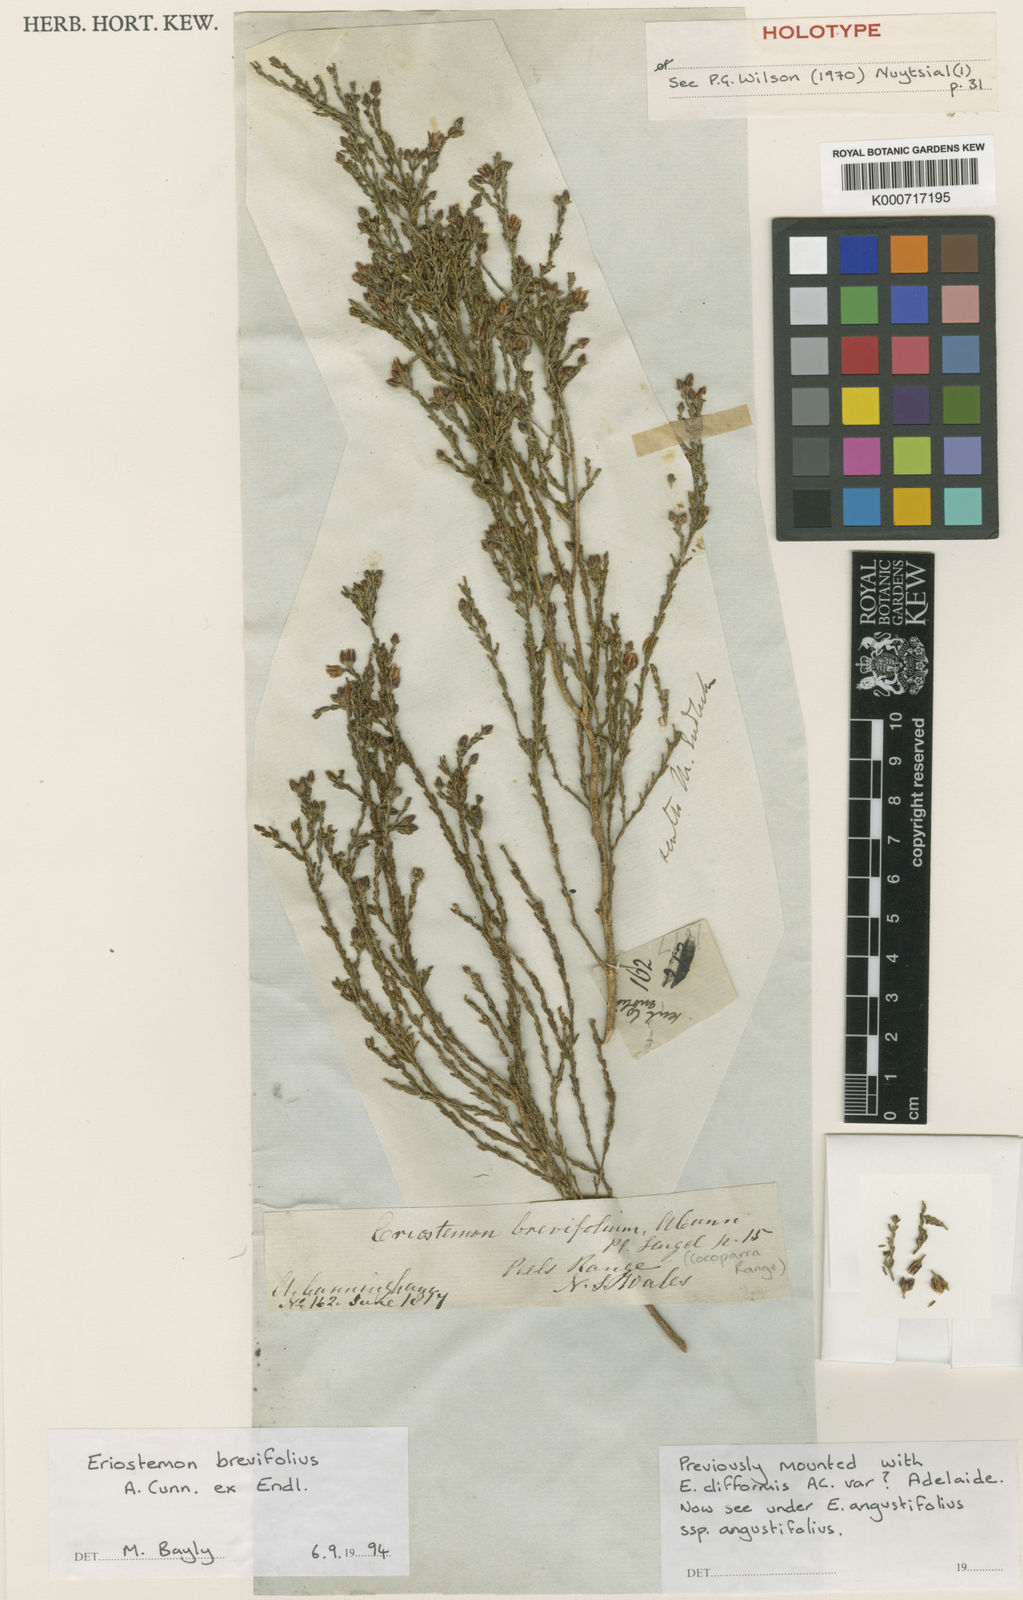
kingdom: Plantae
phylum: Tracheophyta
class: Magnoliopsida
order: Sapindales
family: Rutaceae
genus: Philotheca
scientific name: Philotheca brevifolia
